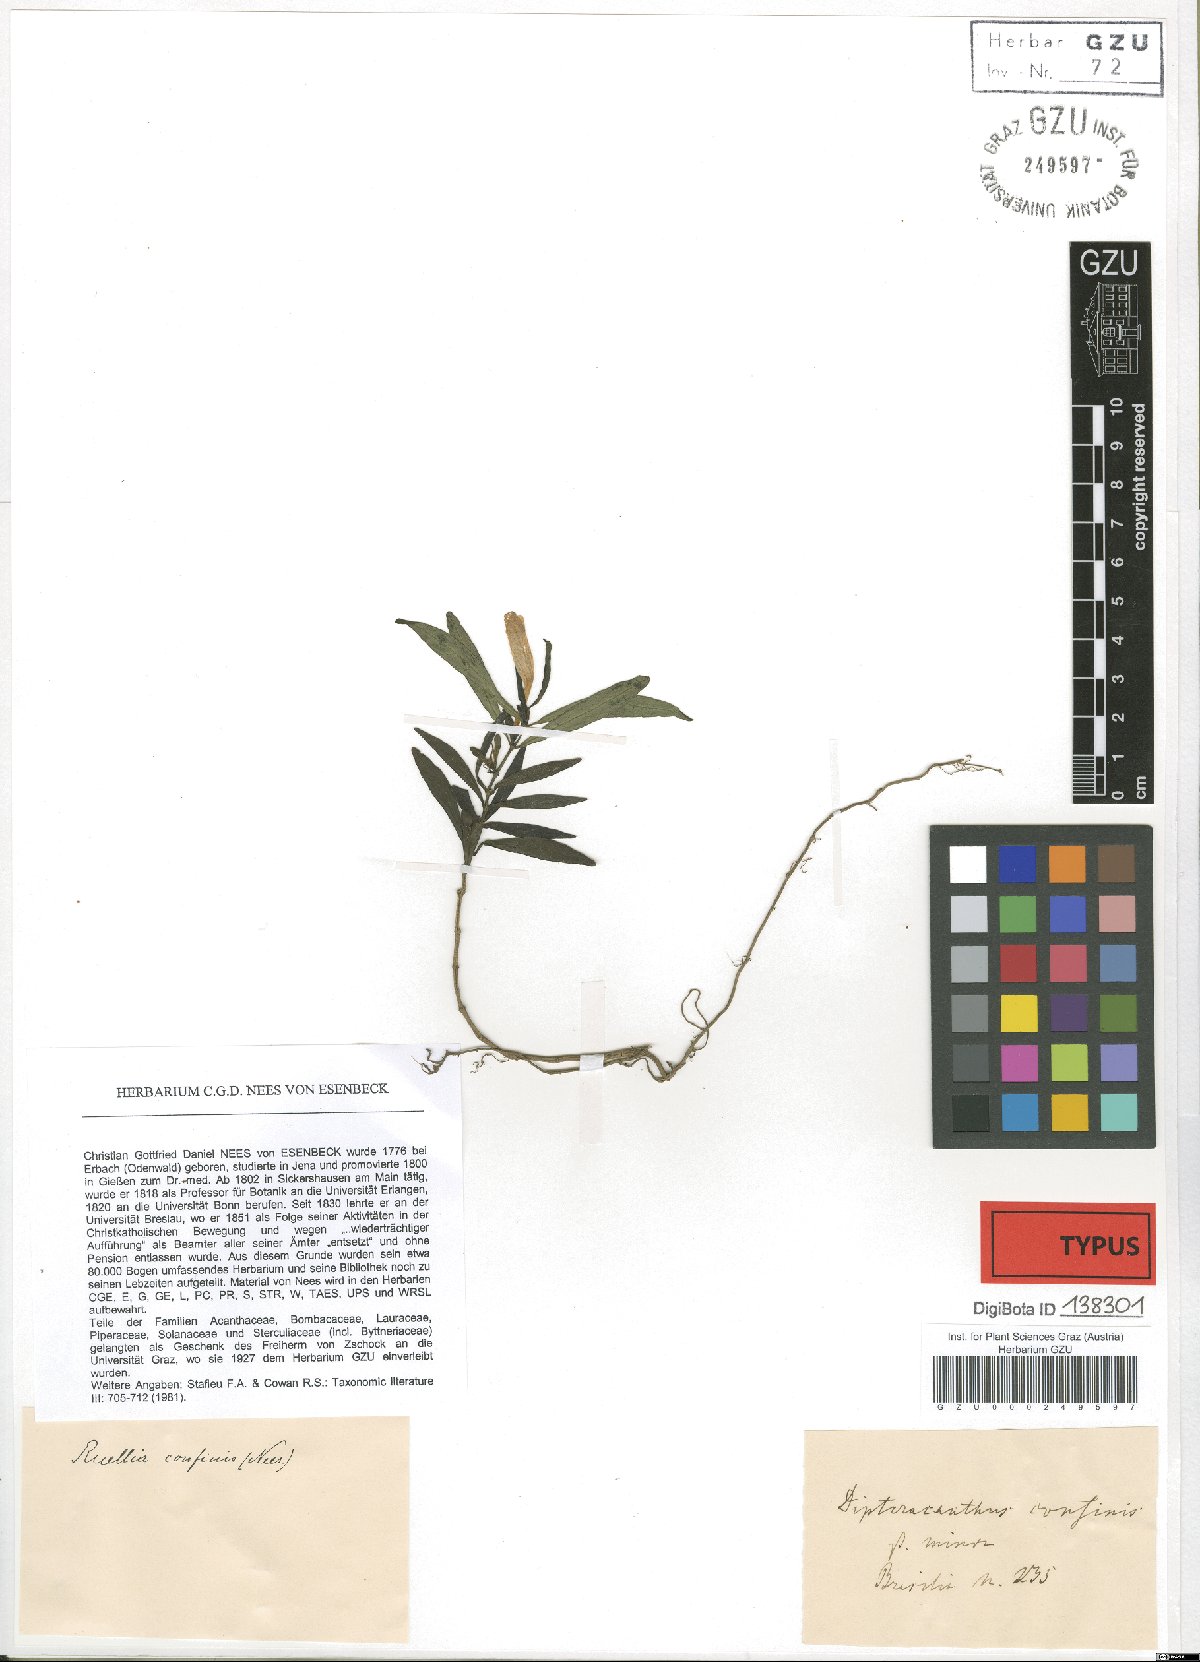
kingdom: Plantae
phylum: Tracheophyta
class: Magnoliopsida
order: Lamiales
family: Acanthaceae
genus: Ruellia
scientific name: Ruellia solitaria
